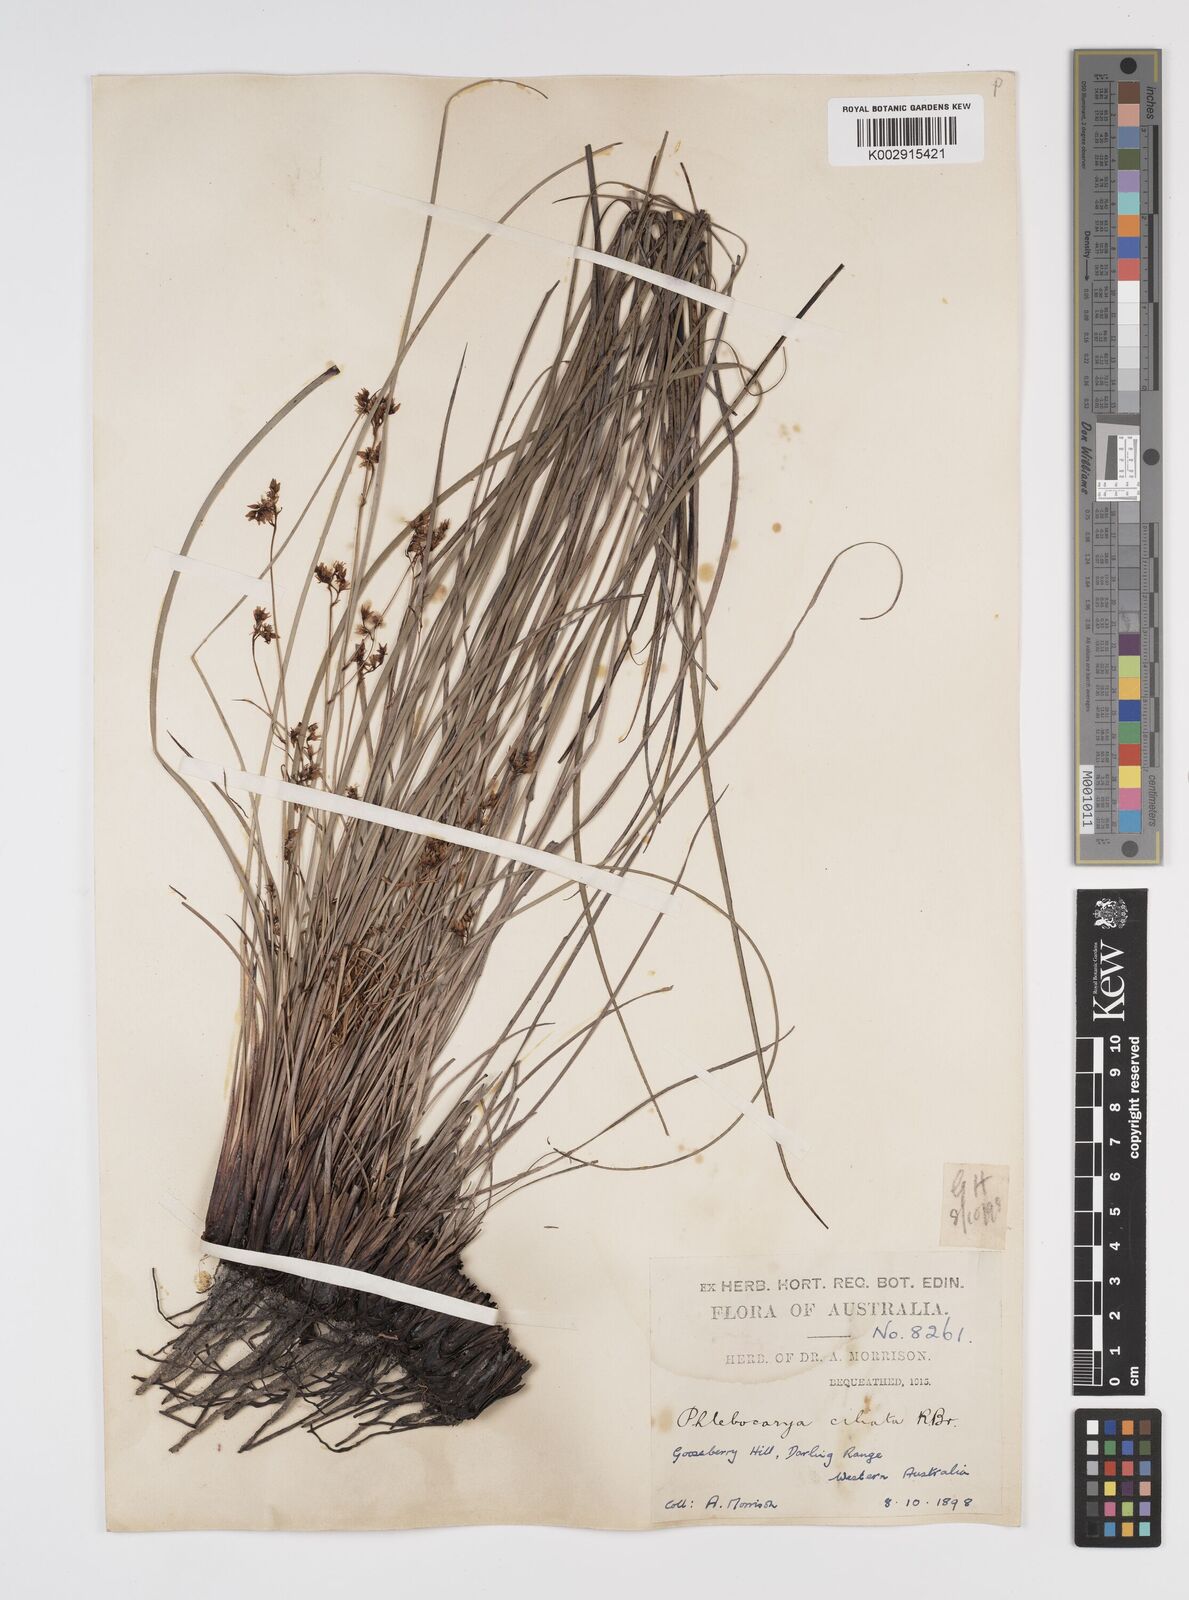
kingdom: Plantae
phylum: Tracheophyta
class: Liliopsida
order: Commelinales
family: Haemodoraceae
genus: Phlebocarya
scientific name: Phlebocarya ciliata
